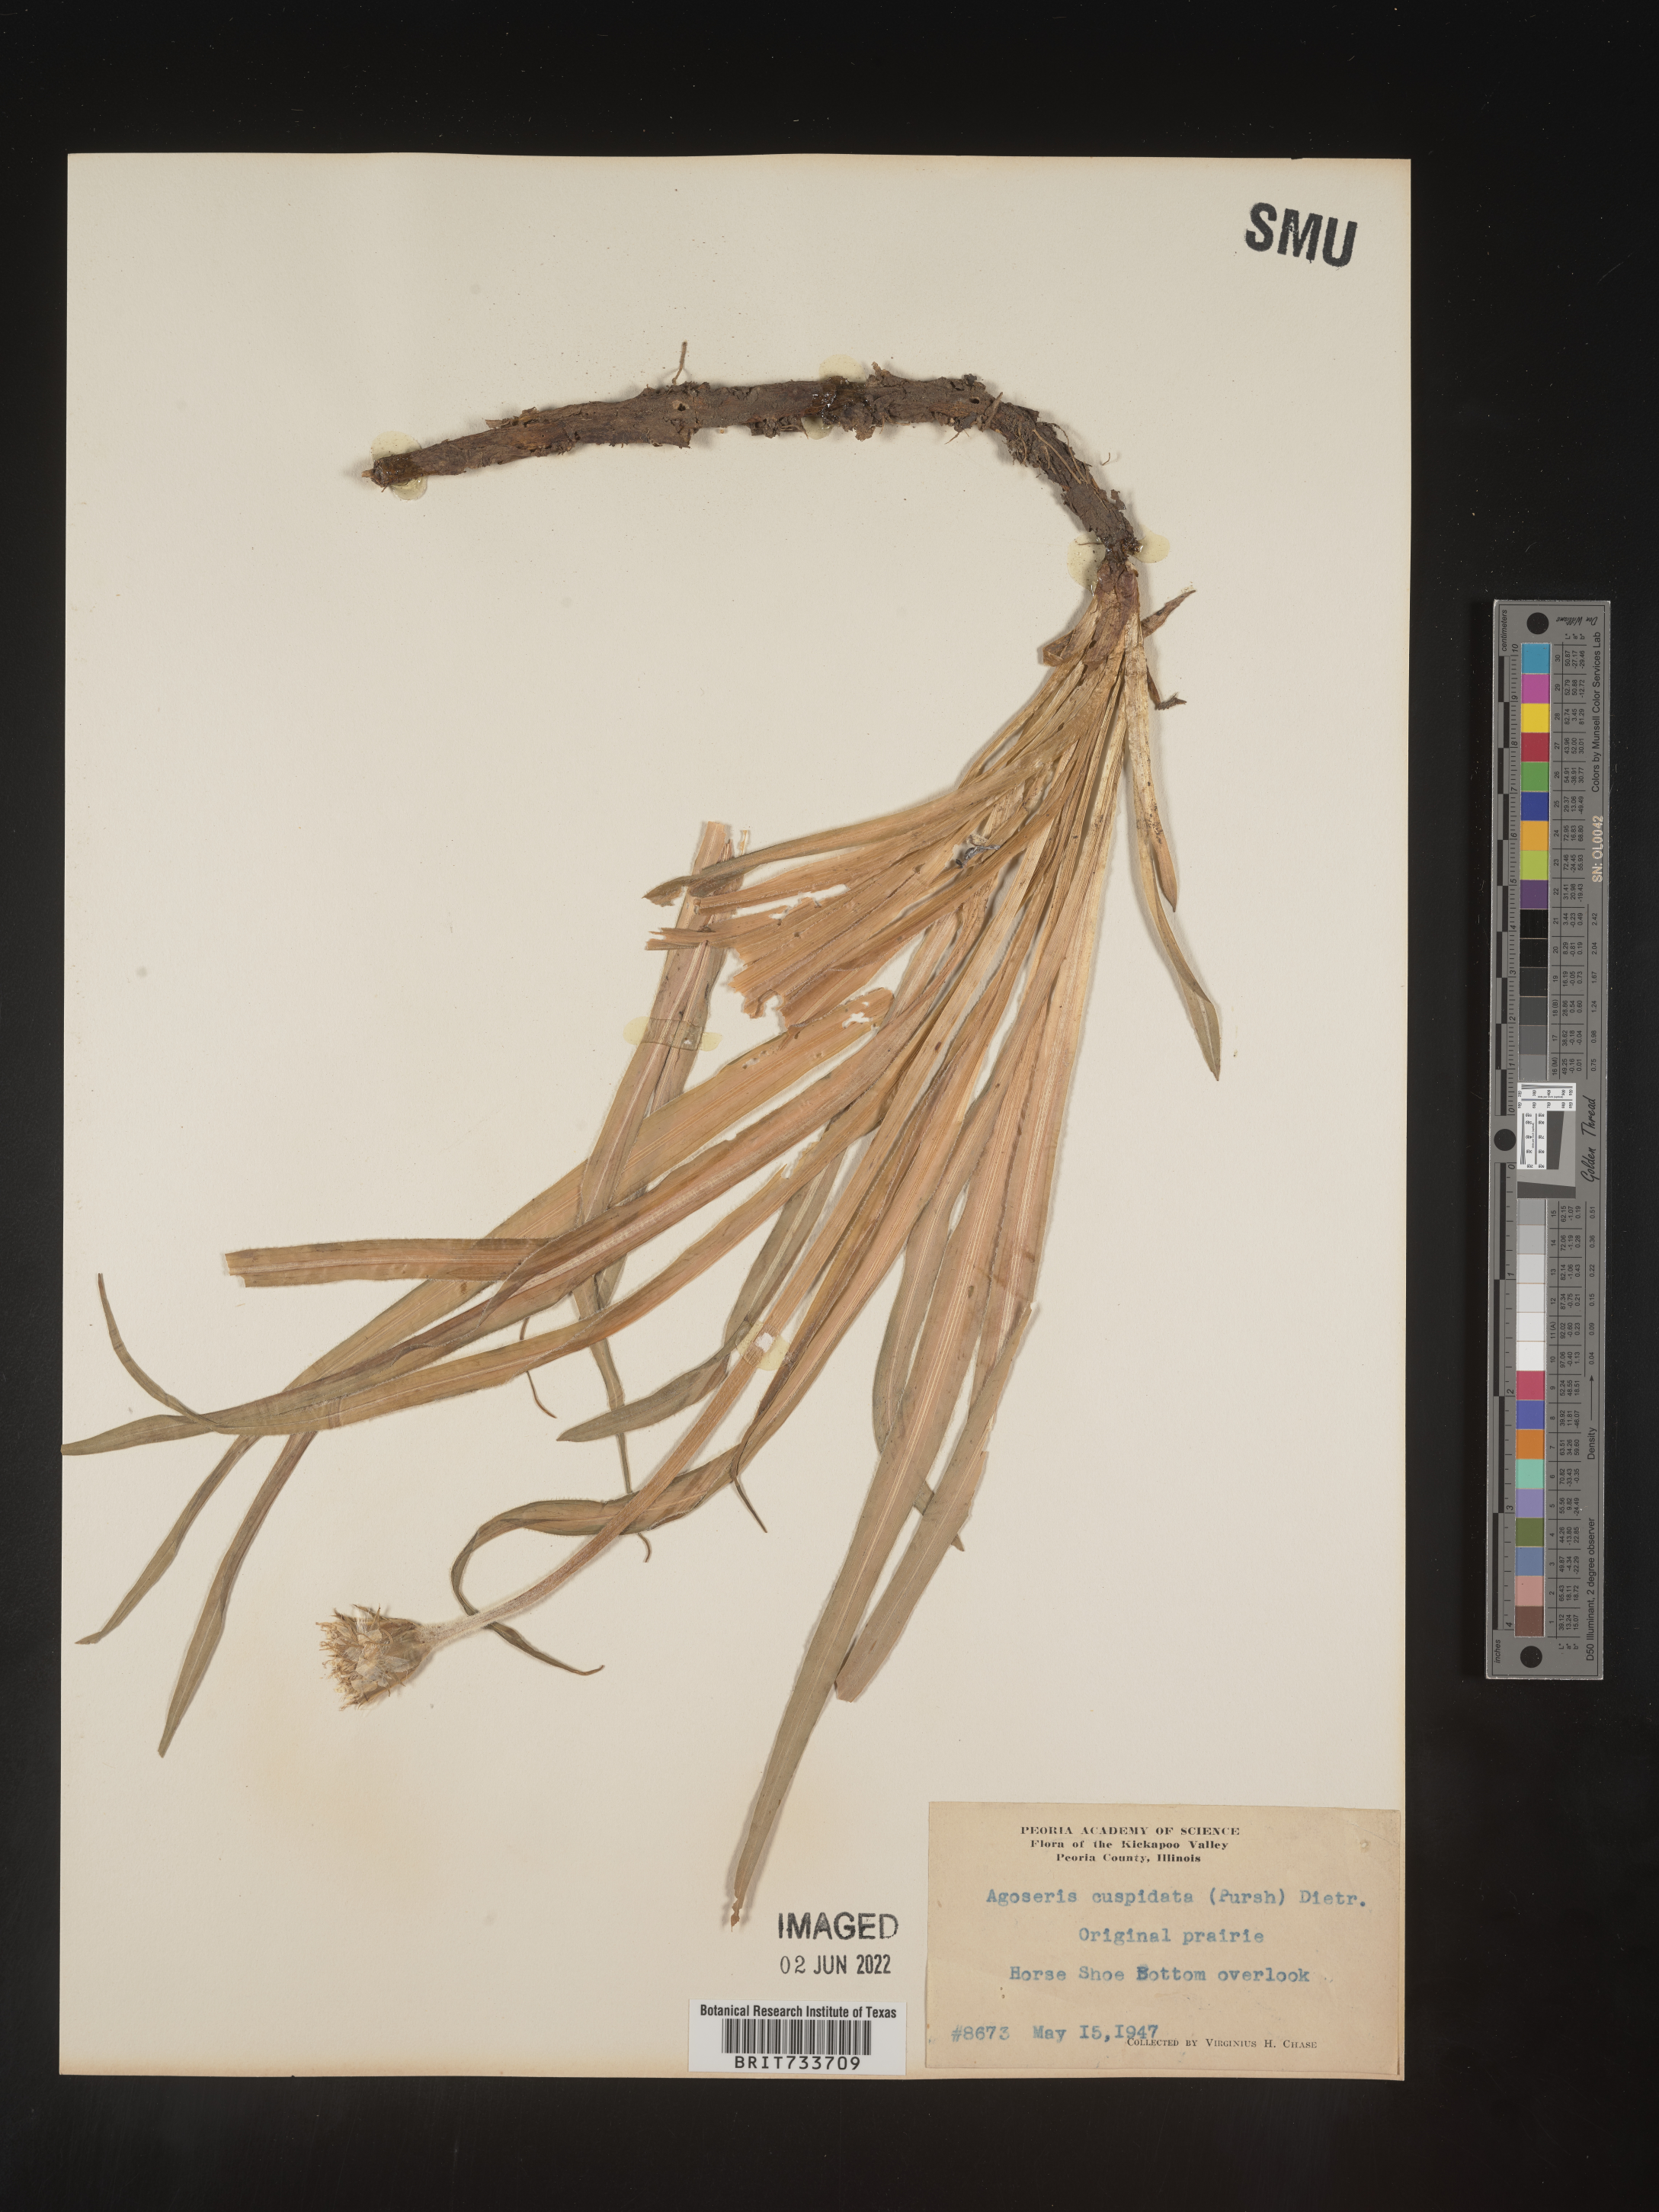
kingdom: Plantae
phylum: Tracheophyta
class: Magnoliopsida
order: Asterales
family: Asteraceae
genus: Microseris
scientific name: Microseris
